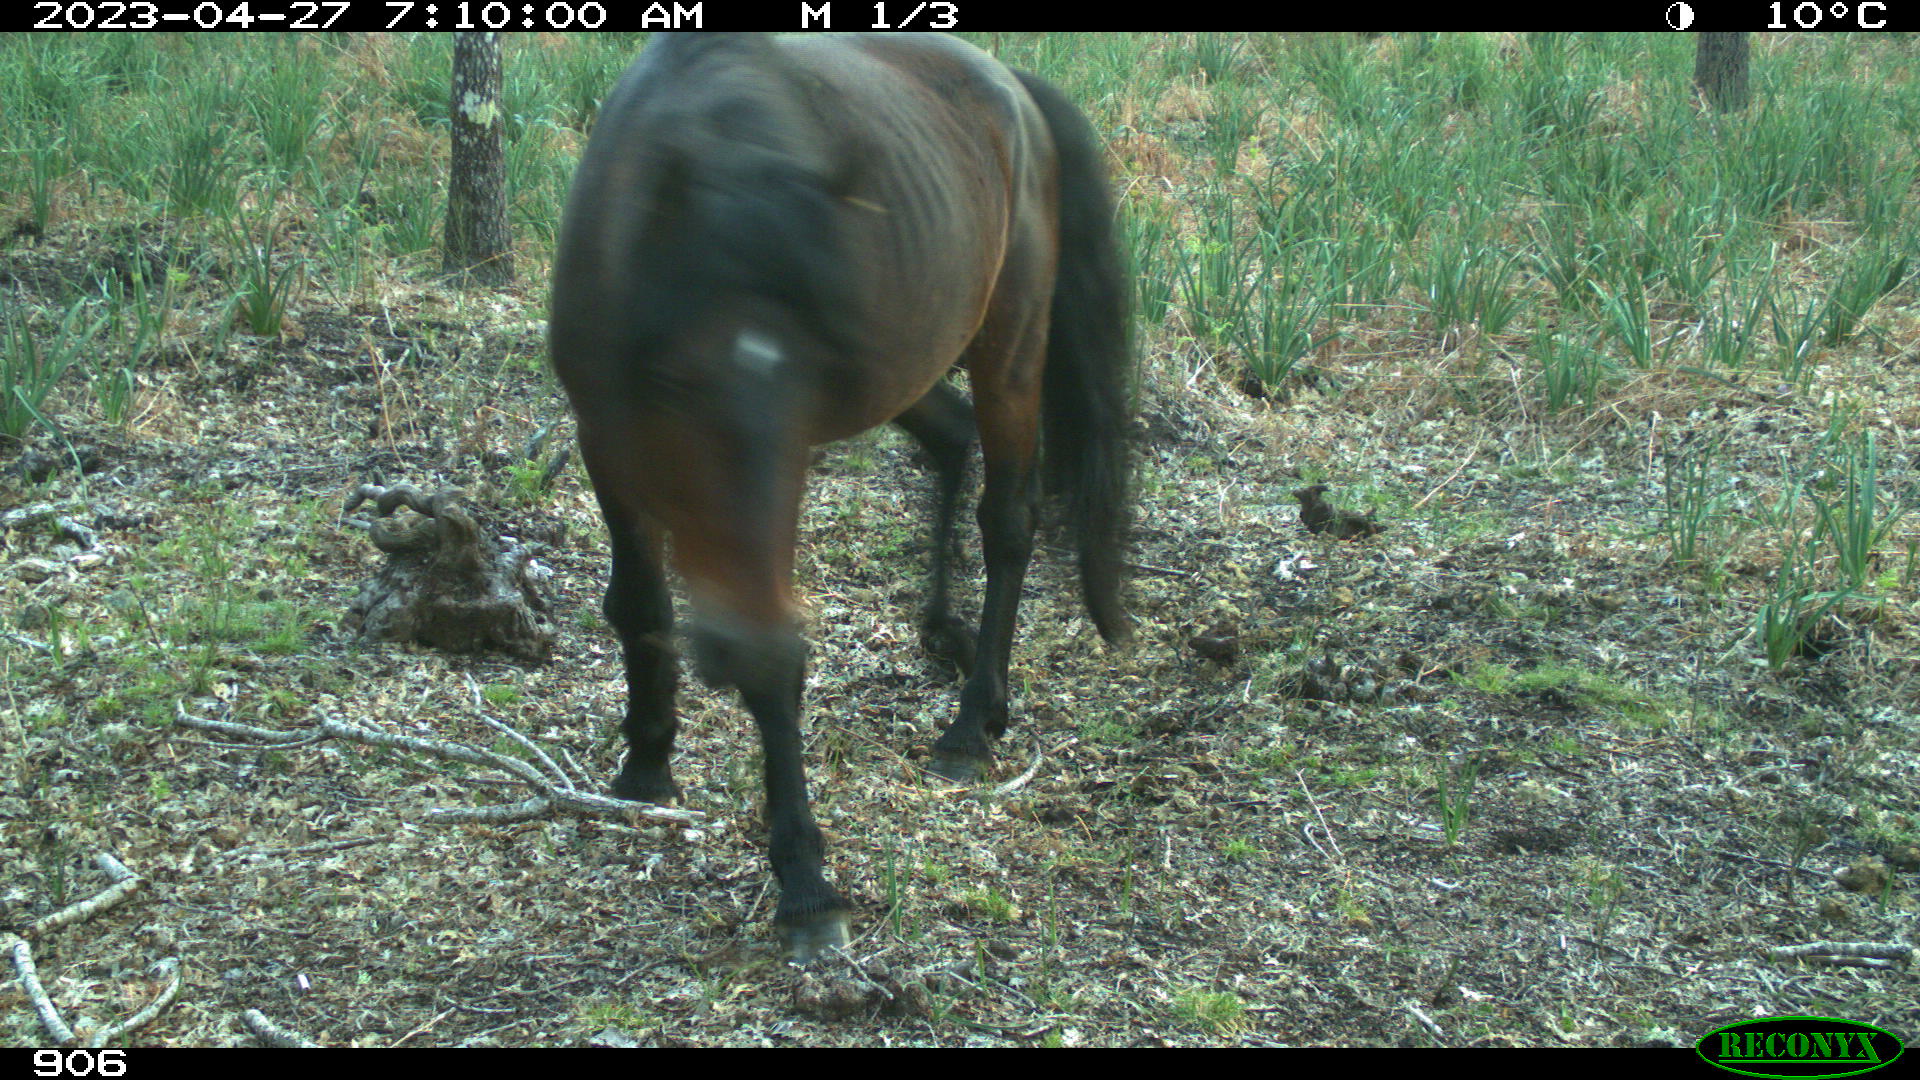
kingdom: Animalia
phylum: Chordata
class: Mammalia
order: Perissodactyla
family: Equidae
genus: Equus
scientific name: Equus caballus
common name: Horse
